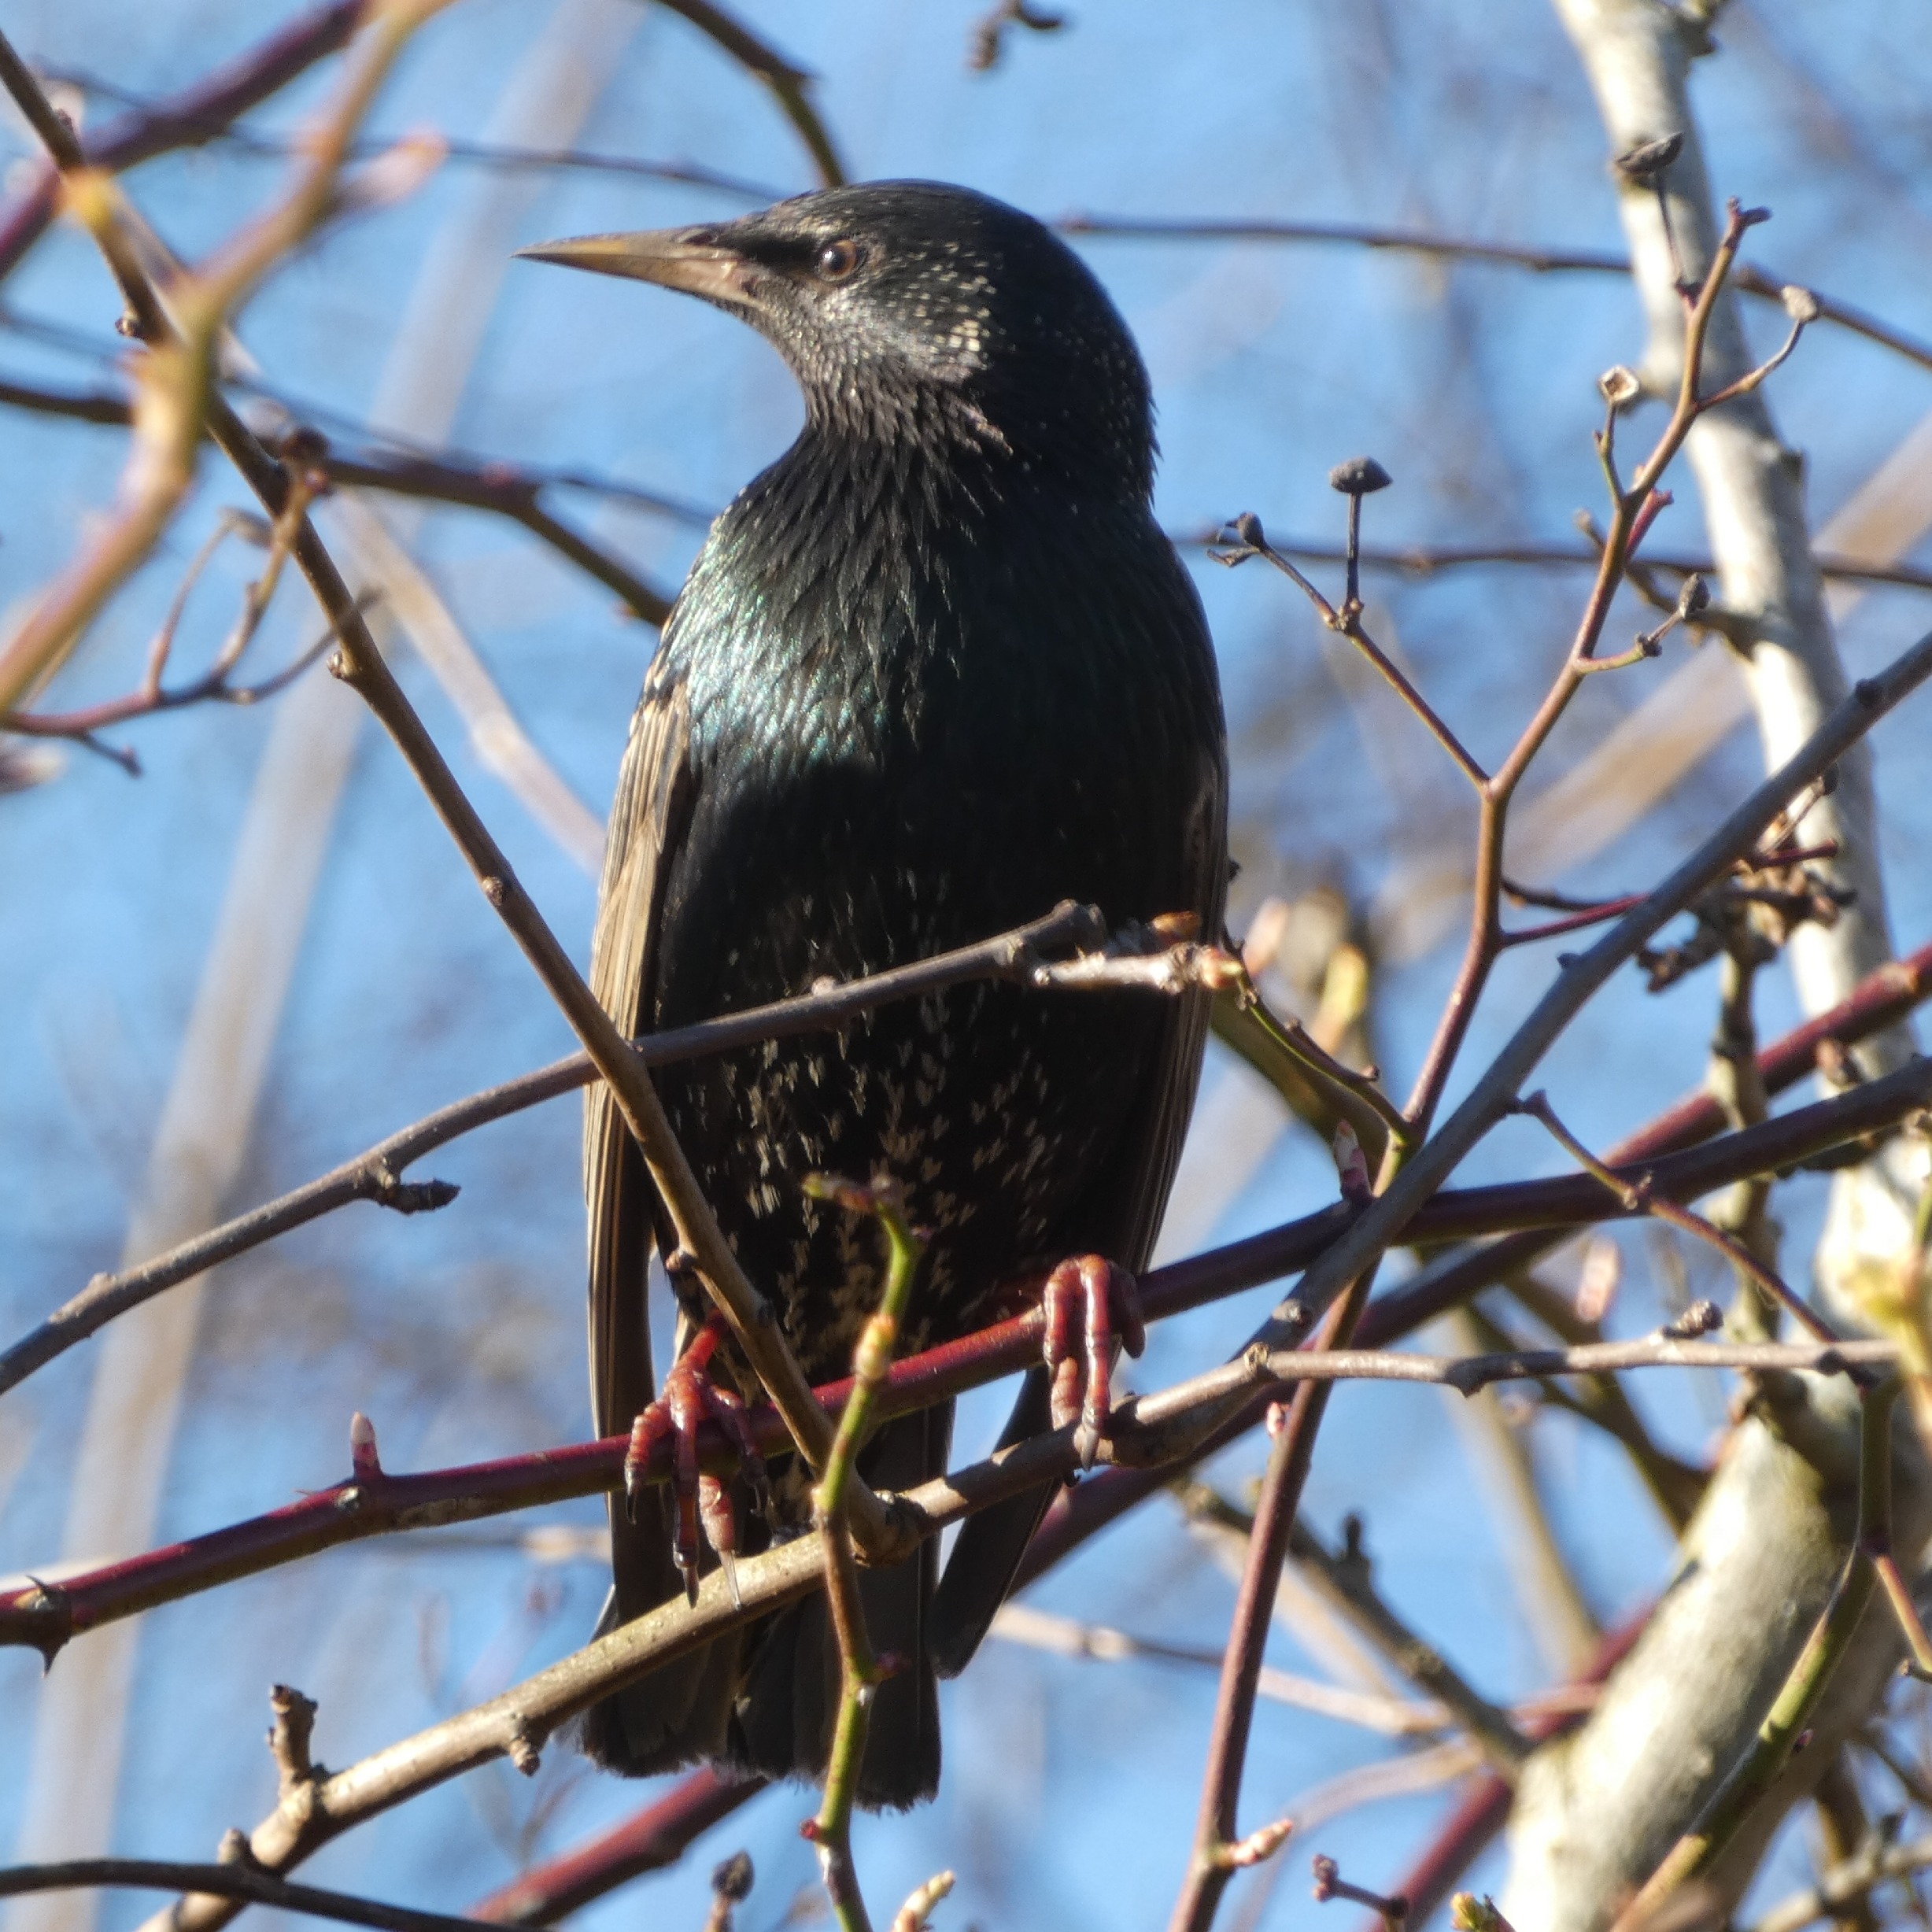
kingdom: Animalia
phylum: Chordata
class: Aves
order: Passeriformes
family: Sturnidae
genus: Sturnus
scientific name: Sturnus vulgaris
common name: Stær
